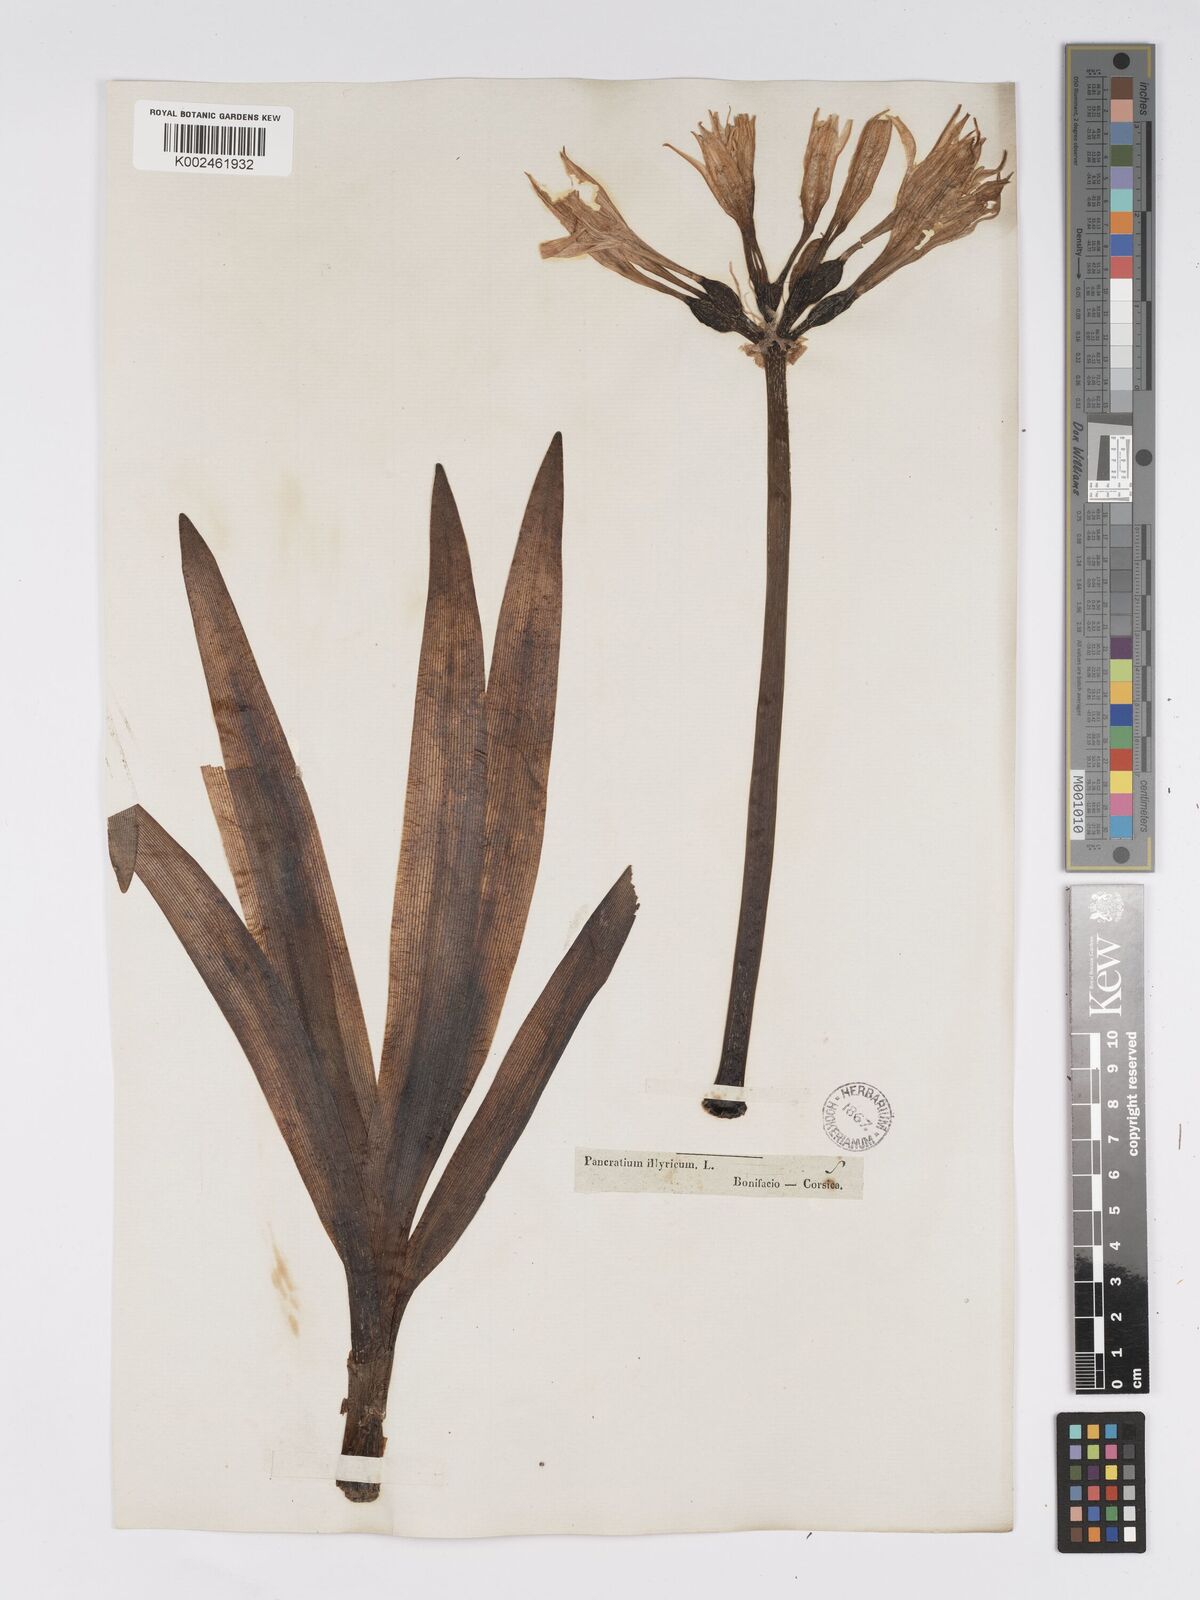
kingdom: Plantae
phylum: Tracheophyta
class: Liliopsida
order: Asparagales
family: Amaryllidaceae
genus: Pancratium
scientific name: Pancratium illyricum
